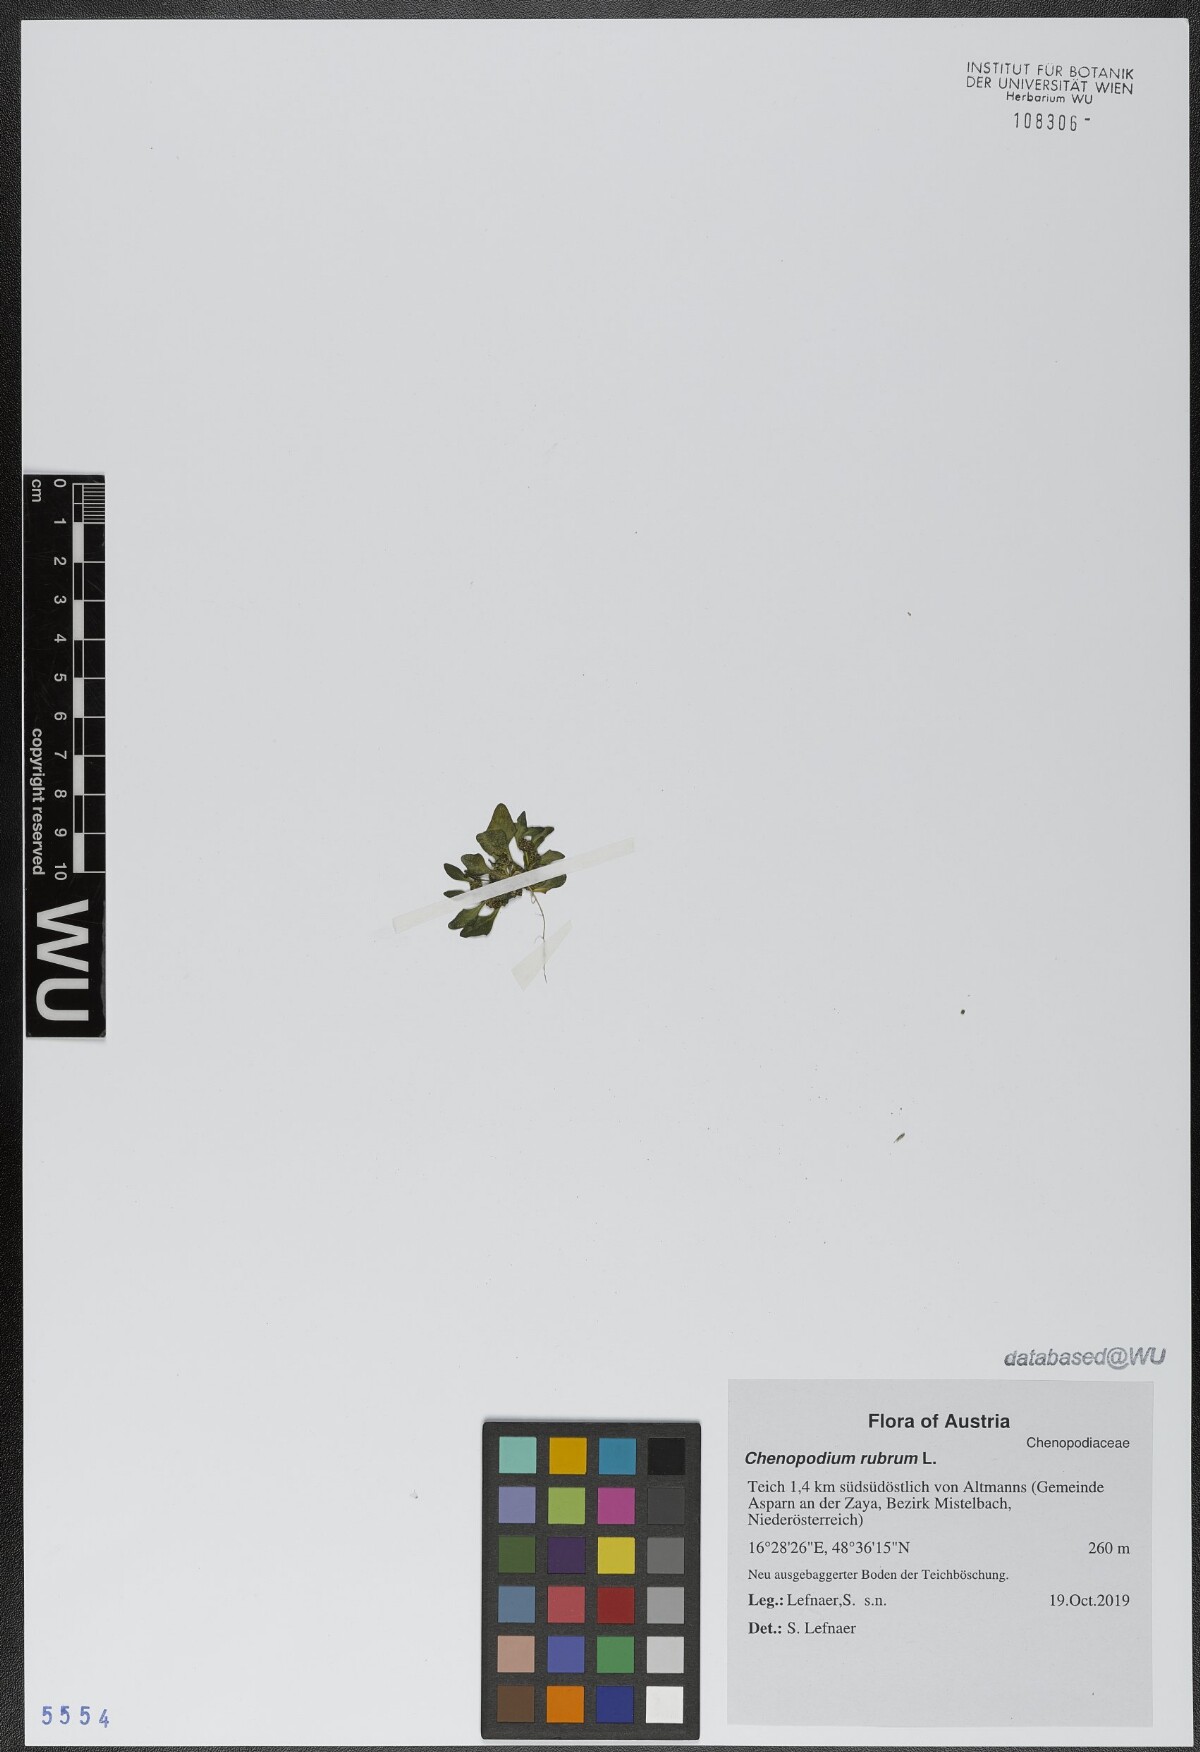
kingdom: Plantae
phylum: Tracheophyta
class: Magnoliopsida
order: Caryophyllales
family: Amaranthaceae
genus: Oxybasis
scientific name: Oxybasis rubra
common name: Red goosefoot
